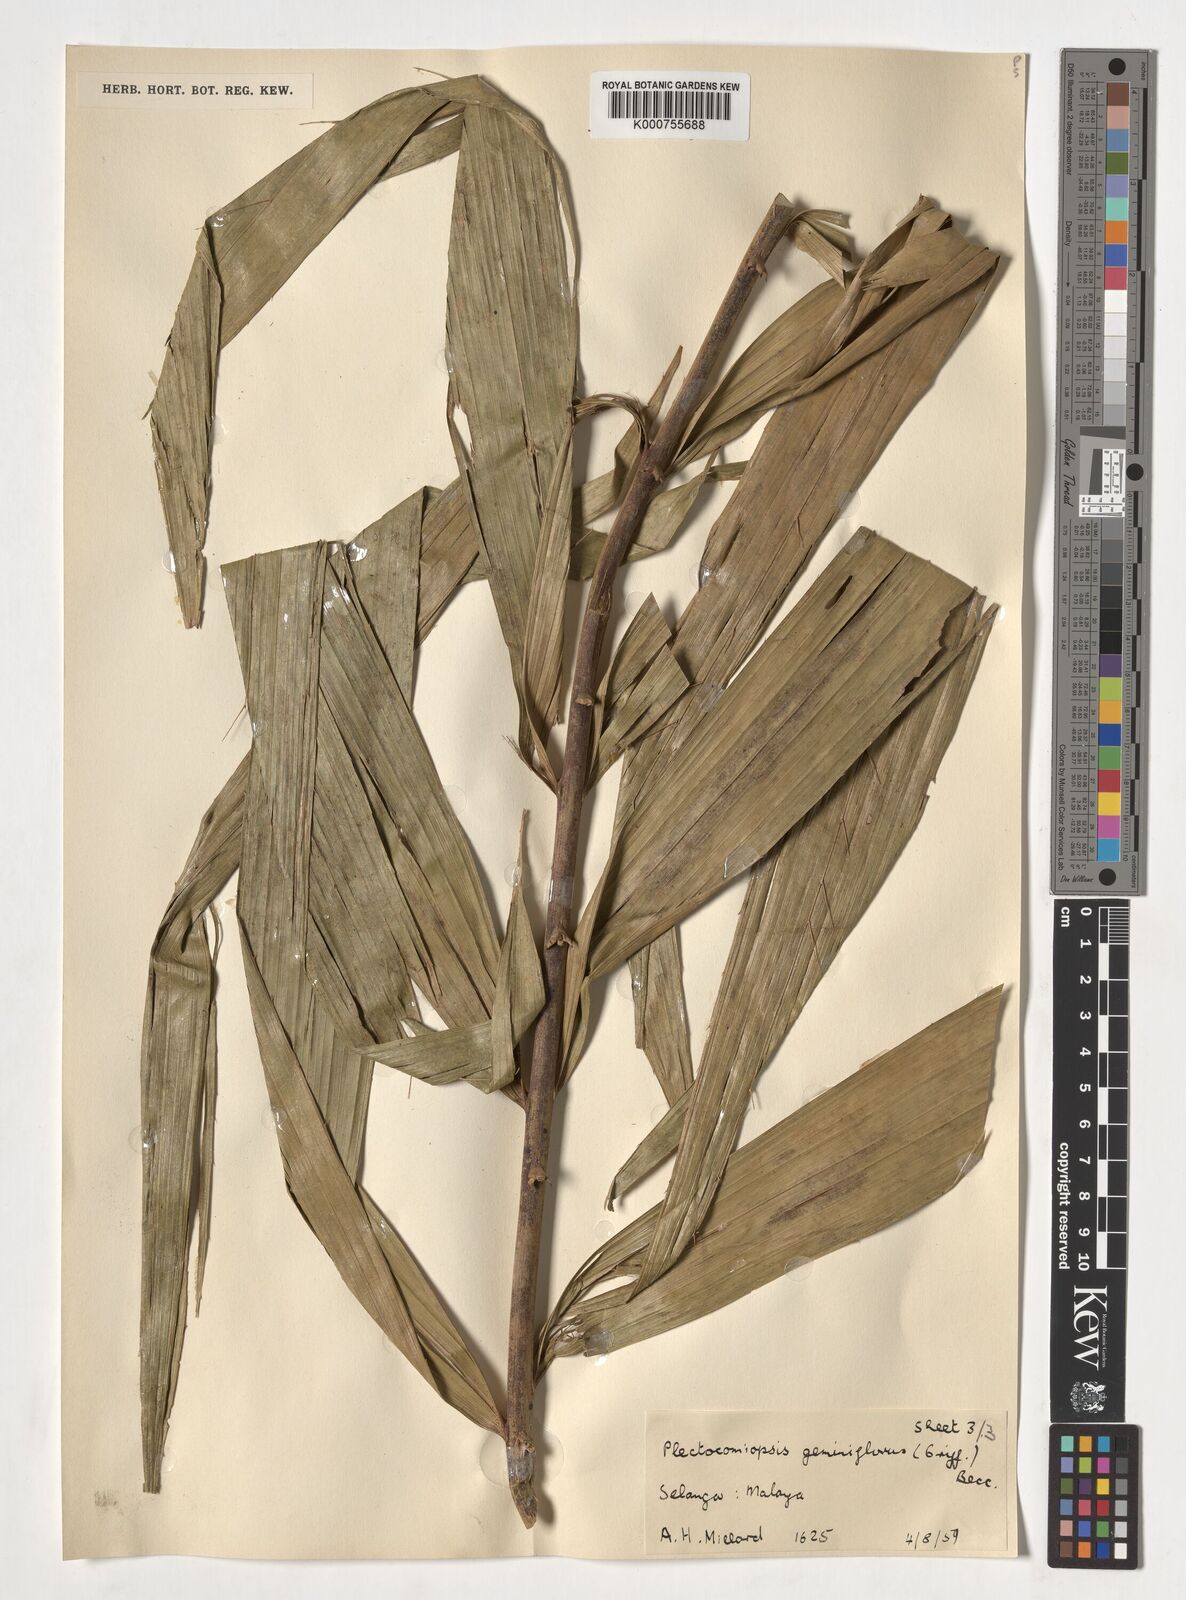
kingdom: Plantae
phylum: Tracheophyta
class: Liliopsida
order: Arecales
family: Arecaceae
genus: Plectocomiopsis
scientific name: Plectocomiopsis geminiflora
